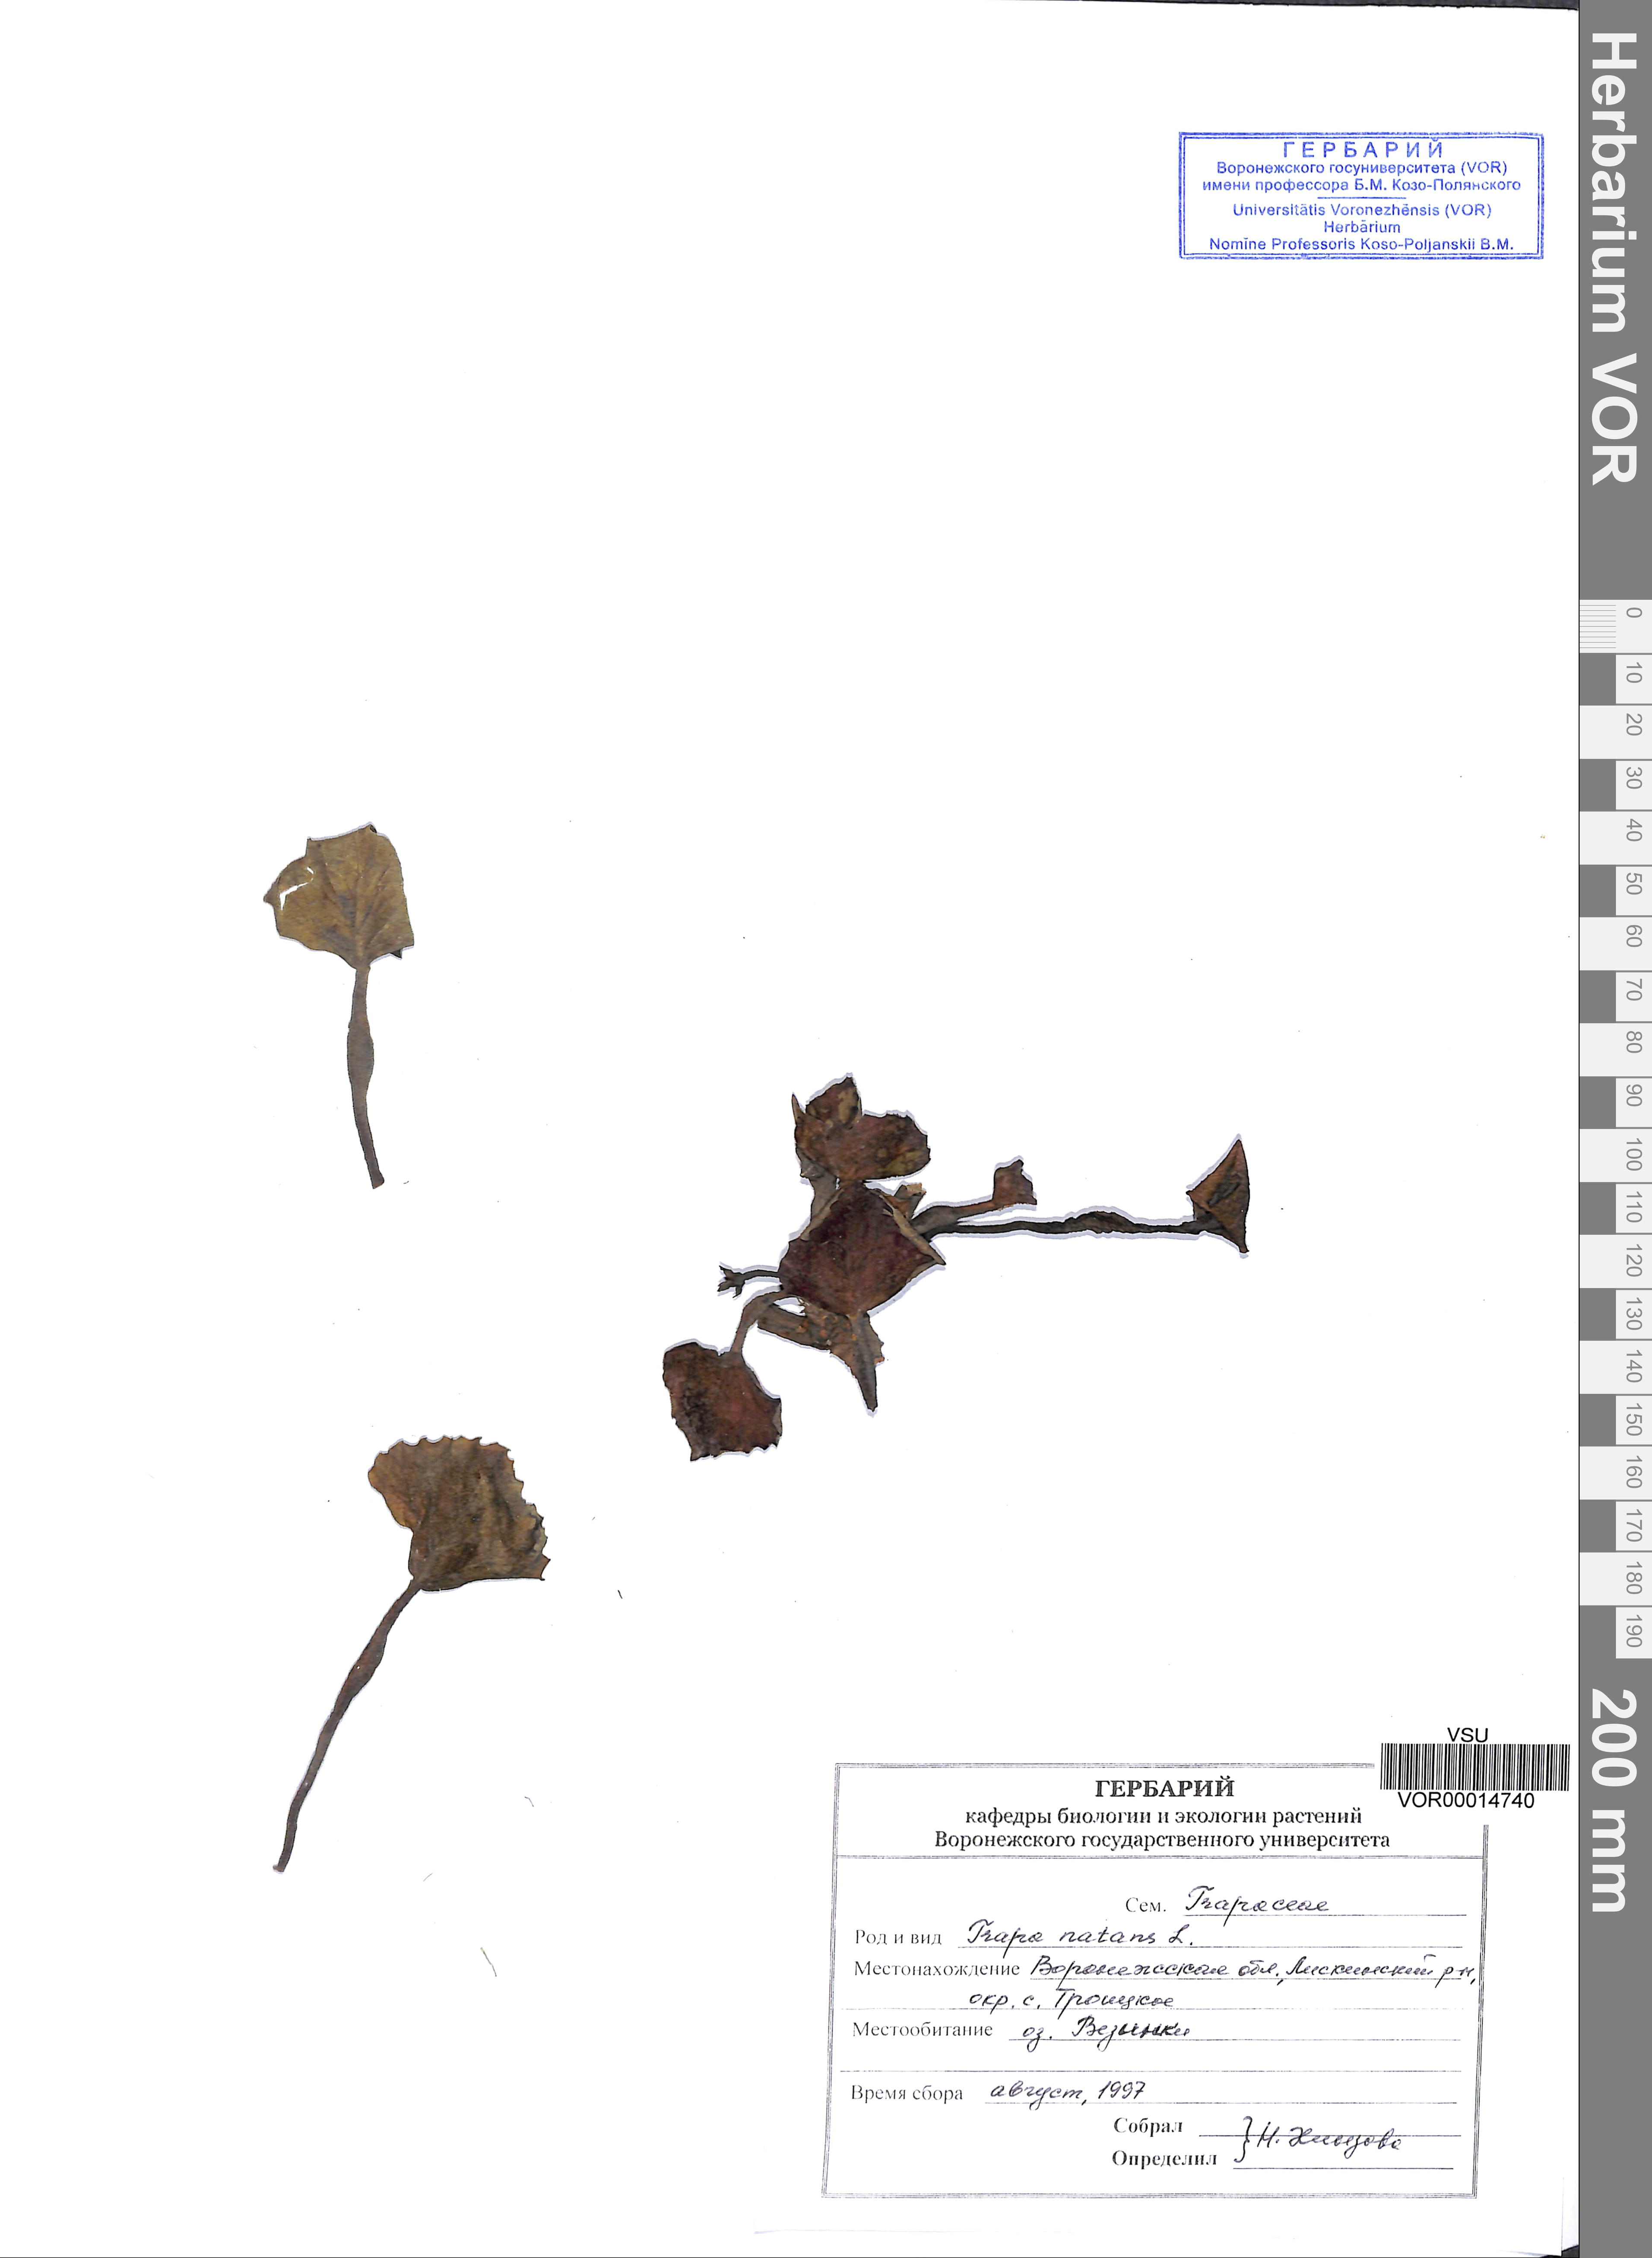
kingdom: Plantae
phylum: Tracheophyta
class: Magnoliopsida
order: Myrtales
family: Lythraceae
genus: Trapa
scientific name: Trapa natans
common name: Water chestnut
